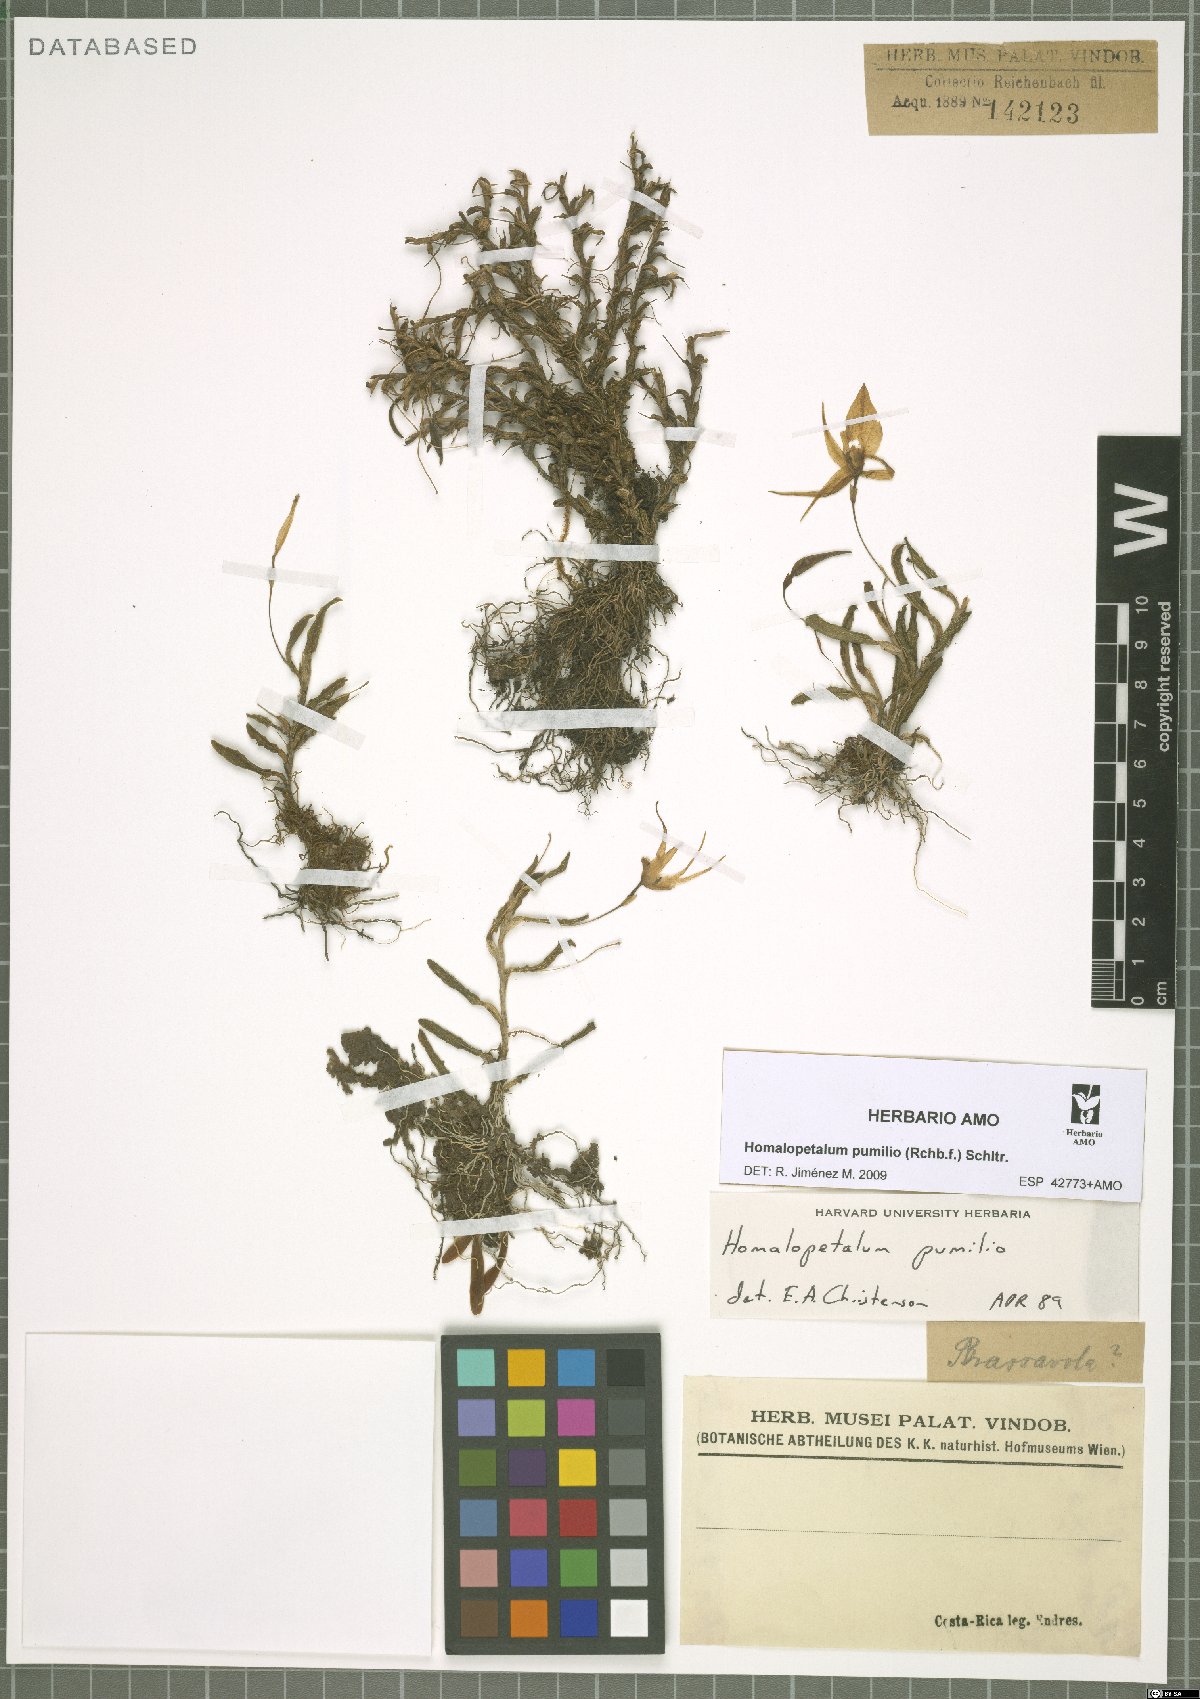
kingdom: Plantae
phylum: Tracheophyta
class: Liliopsida
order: Asparagales
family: Orchidaceae
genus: Homalopetalum
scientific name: Homalopetalum pumilio
